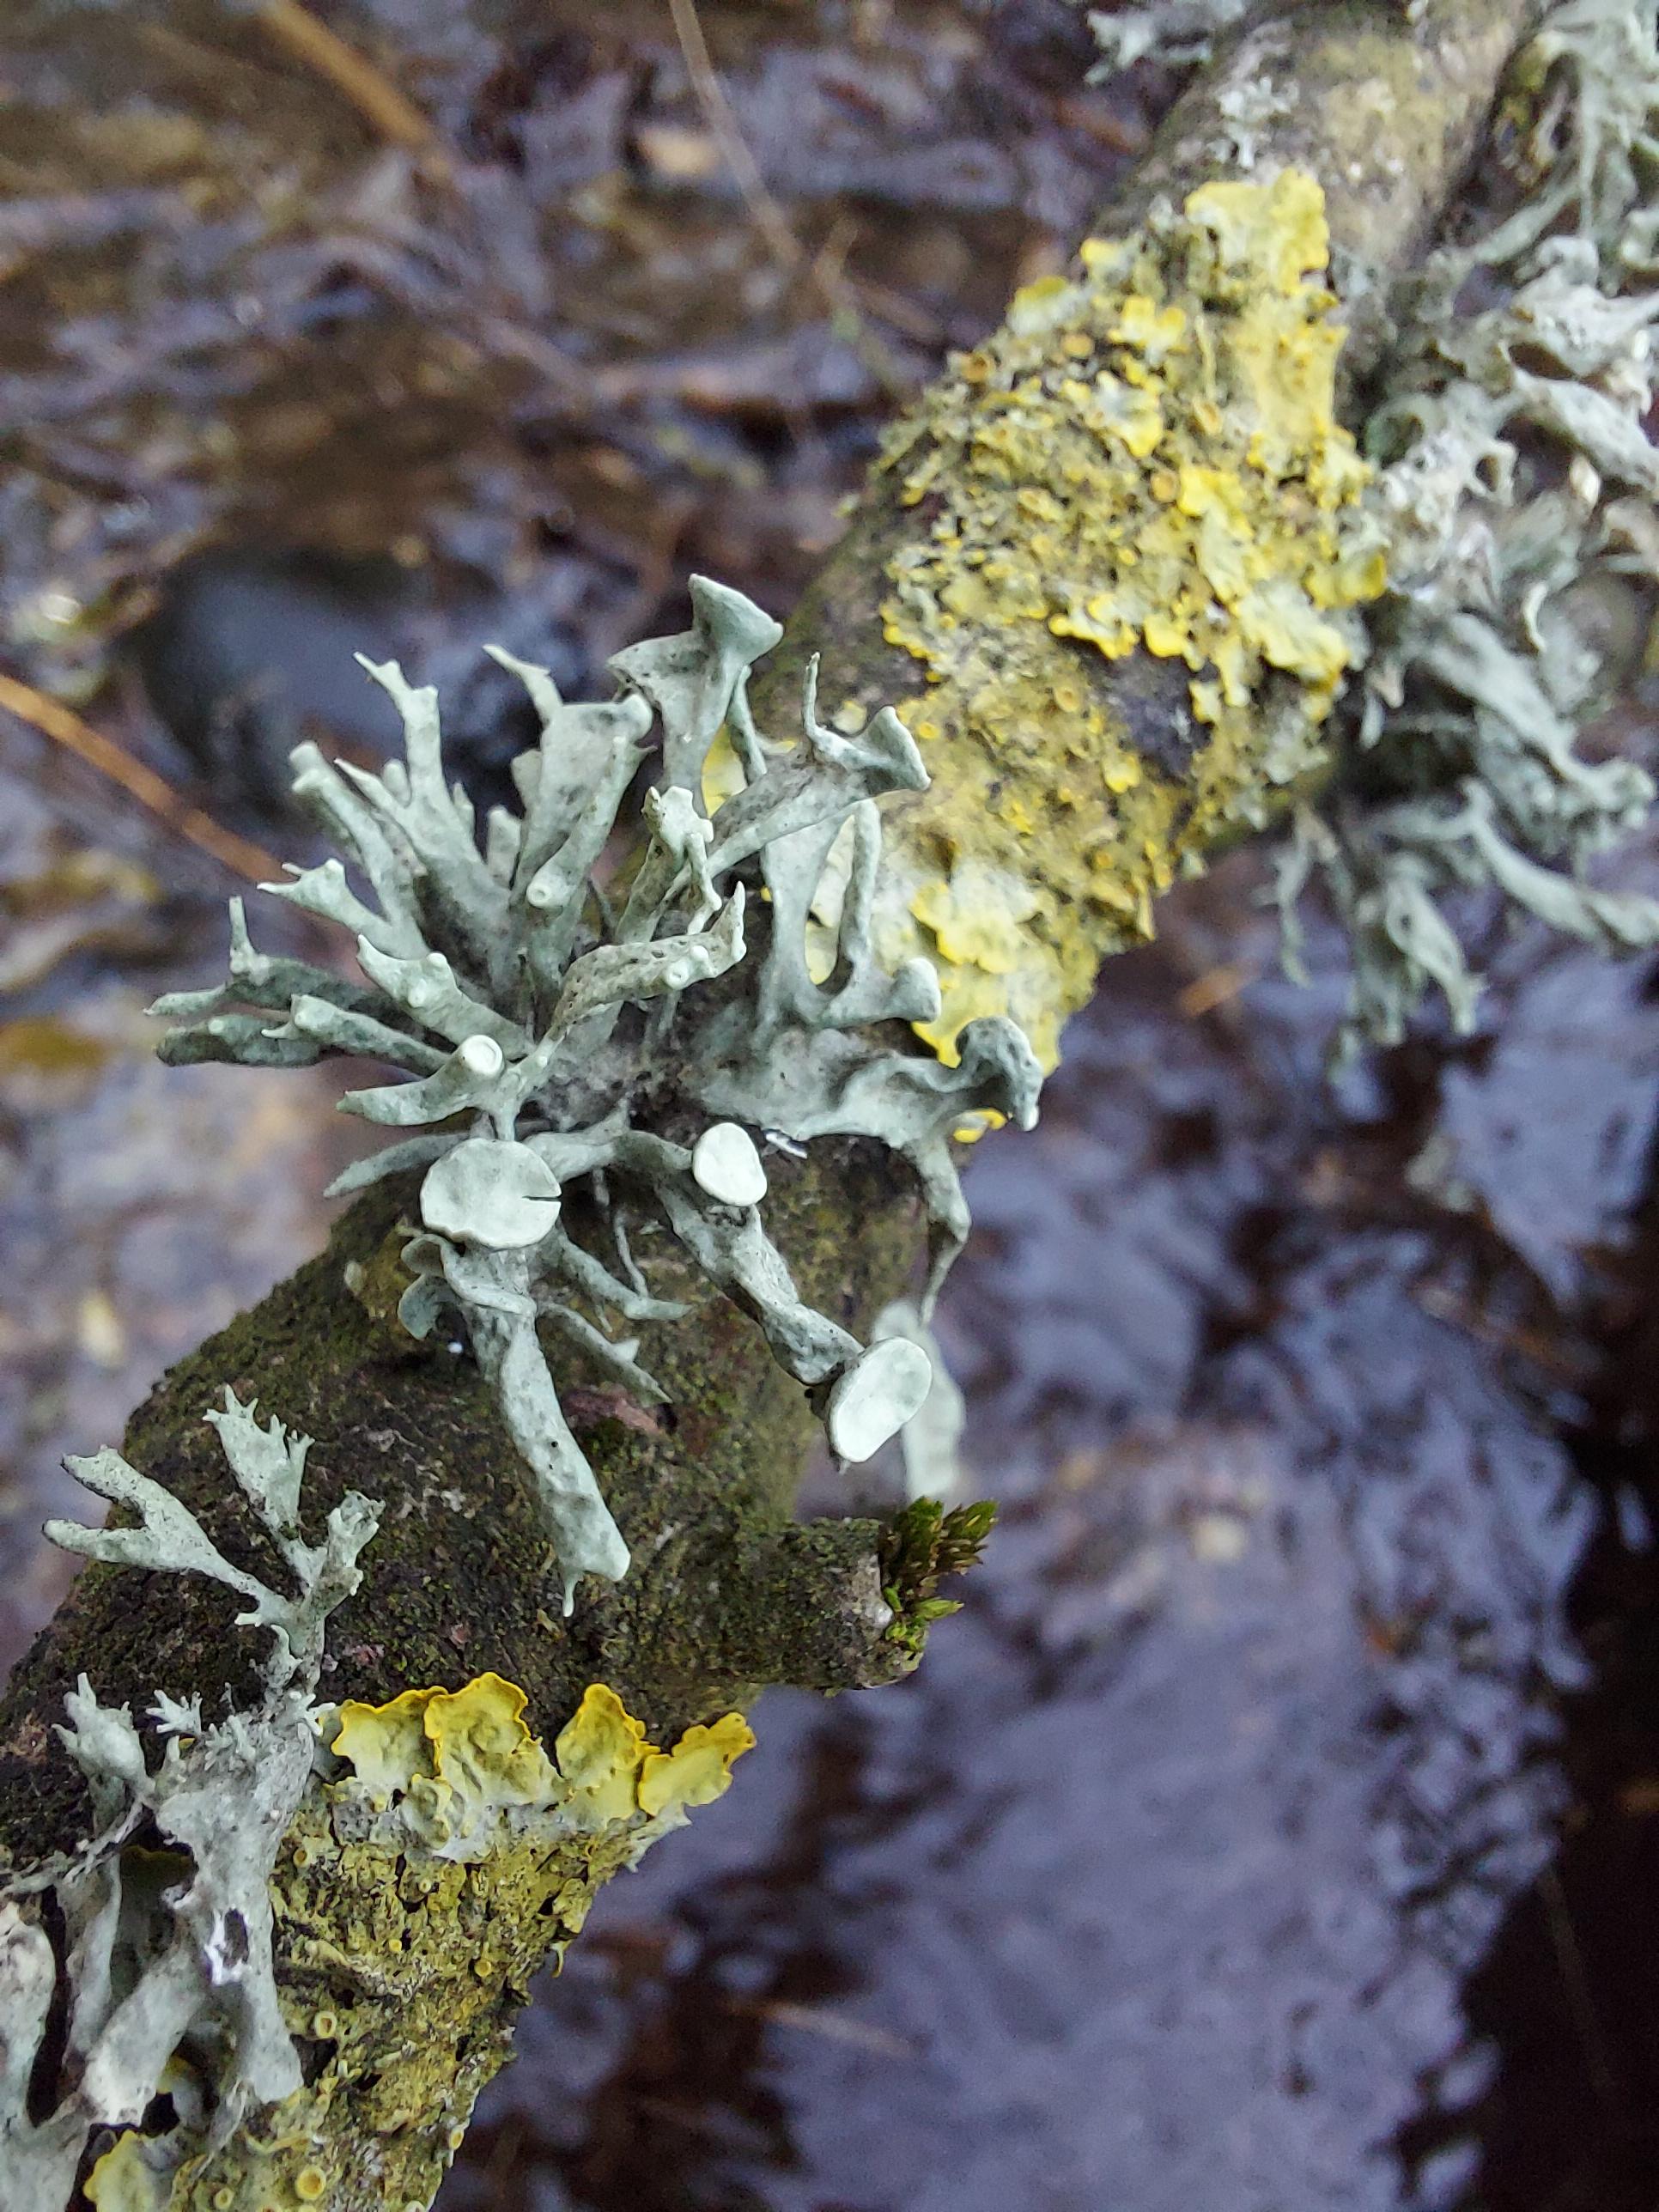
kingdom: Fungi
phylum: Ascomycota
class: Lecanoromycetes
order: Lecanorales
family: Ramalinaceae
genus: Ramalina
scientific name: Ramalina fastigiata
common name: tue-grenlav
